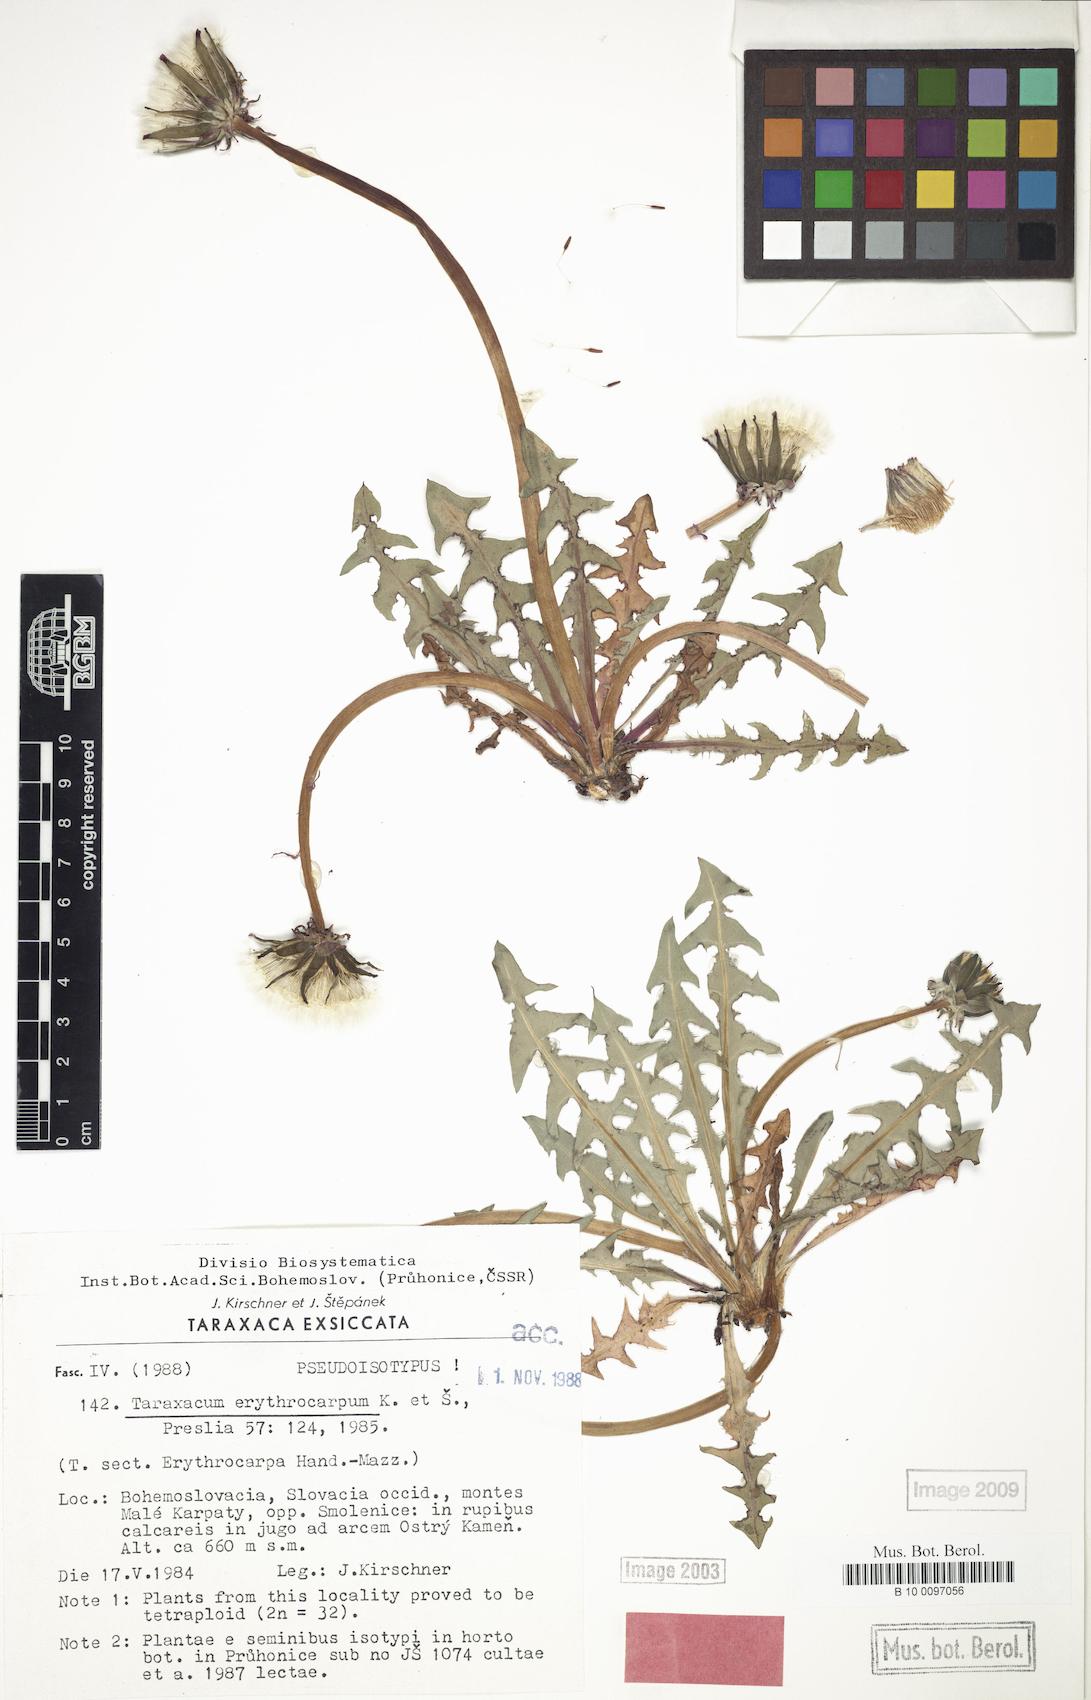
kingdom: Plantae
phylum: Tracheophyta
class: Magnoliopsida
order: Asterales
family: Asteraceae
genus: Taraxacum
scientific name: Taraxacum erythrocarpum
